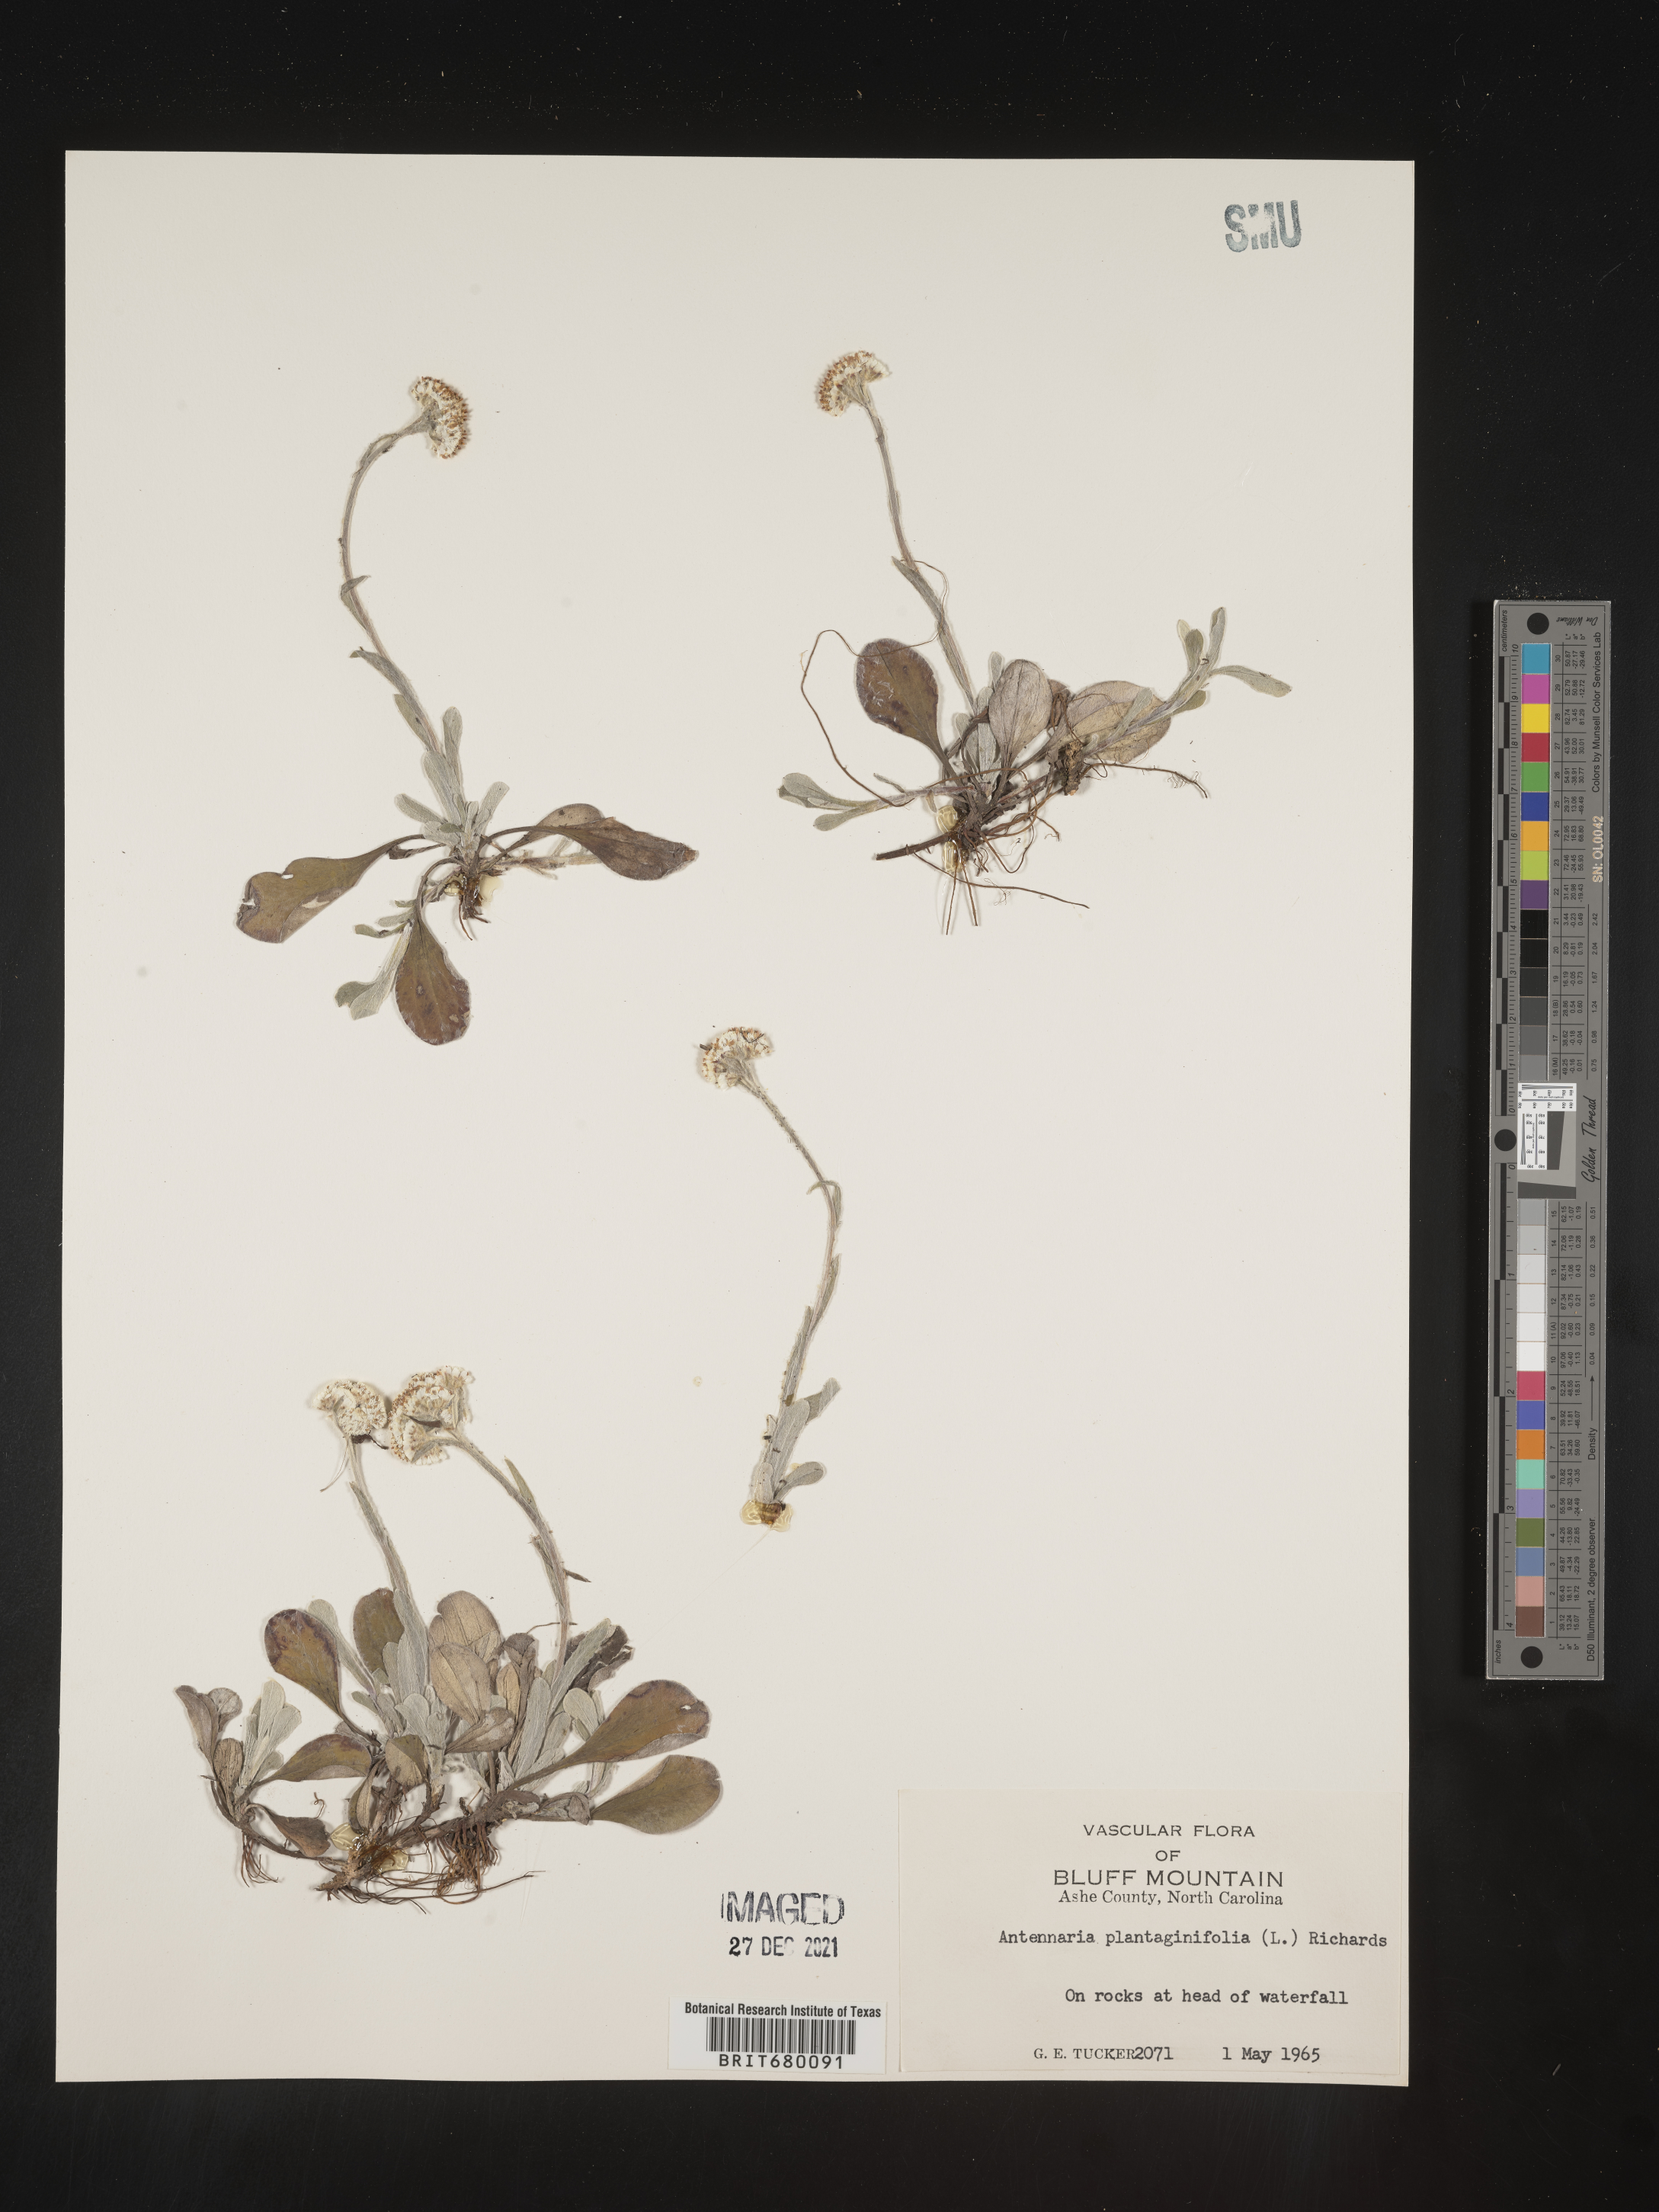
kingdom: Plantae
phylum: Tracheophyta
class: Magnoliopsida
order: Asterales
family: Asteraceae
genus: Antennaria
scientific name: Antennaria plantaginifolia
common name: Plantain-leaved pussytoes
